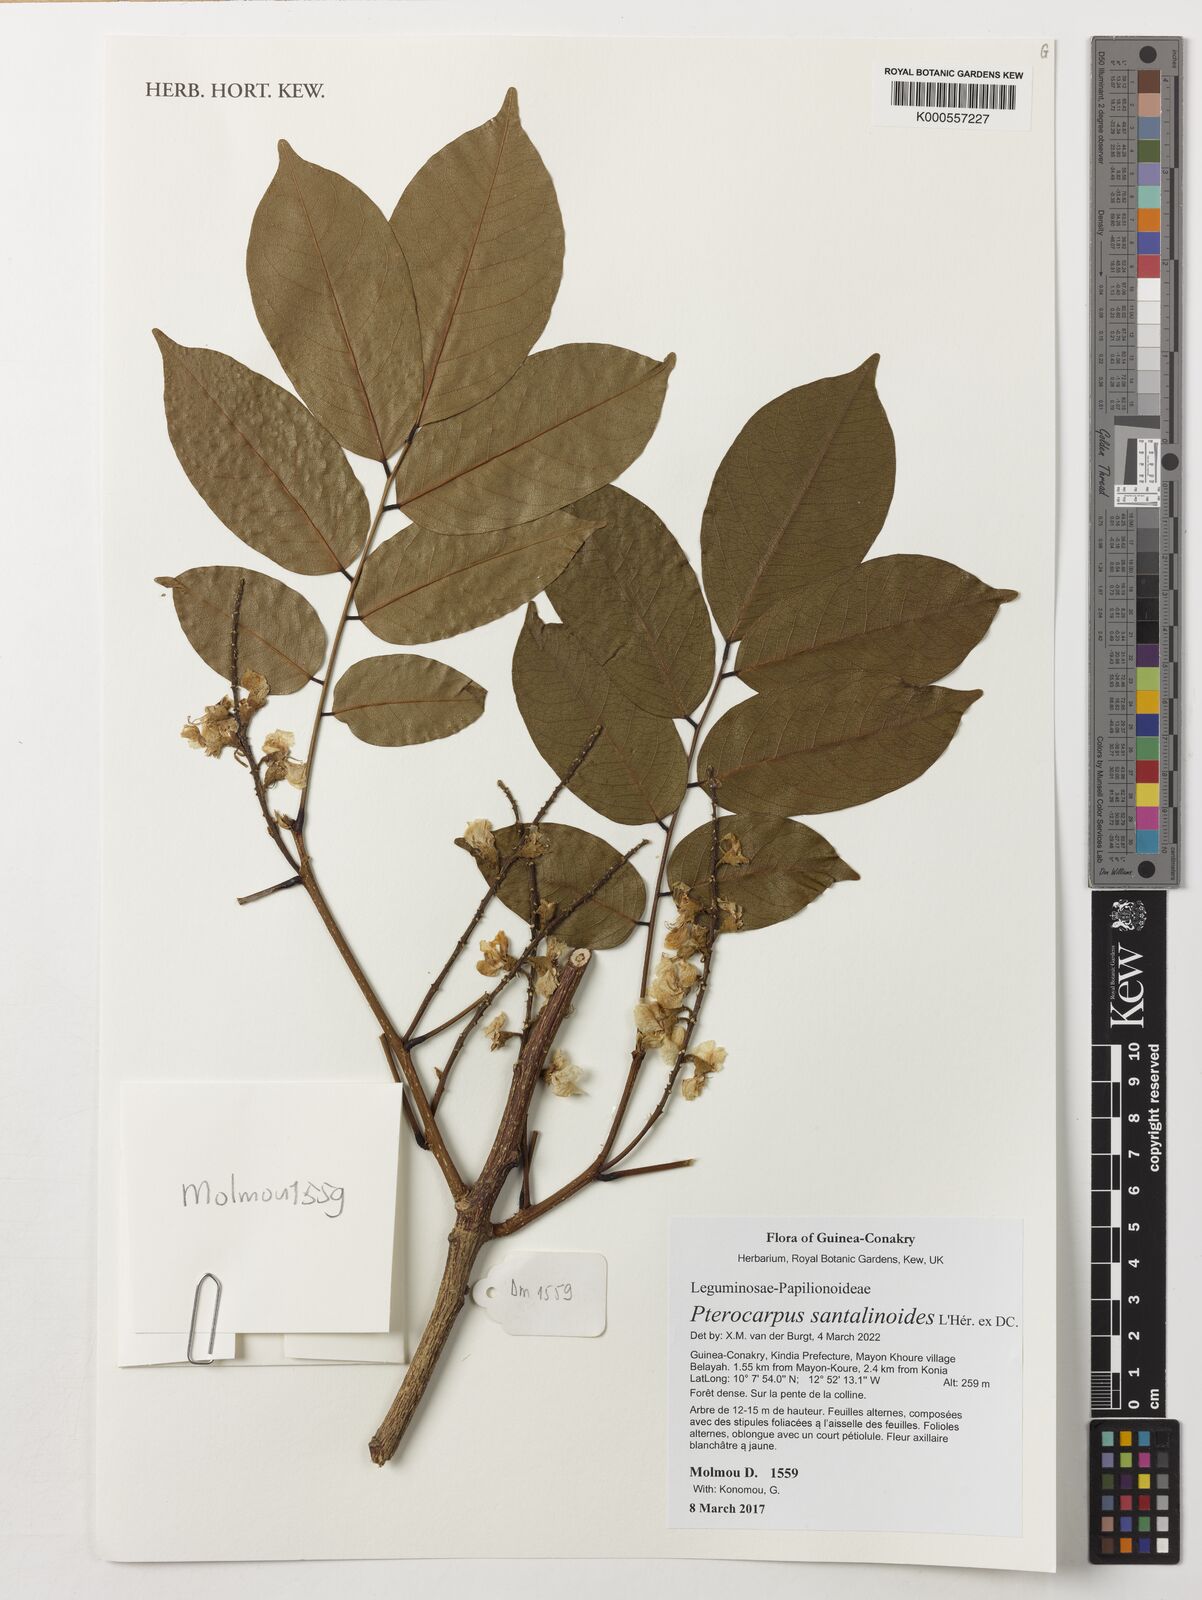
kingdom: Plantae
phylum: Tracheophyta
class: Magnoliopsida
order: Fabales
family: Fabaceae
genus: Pterocarpus
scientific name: Pterocarpus santalinoides
